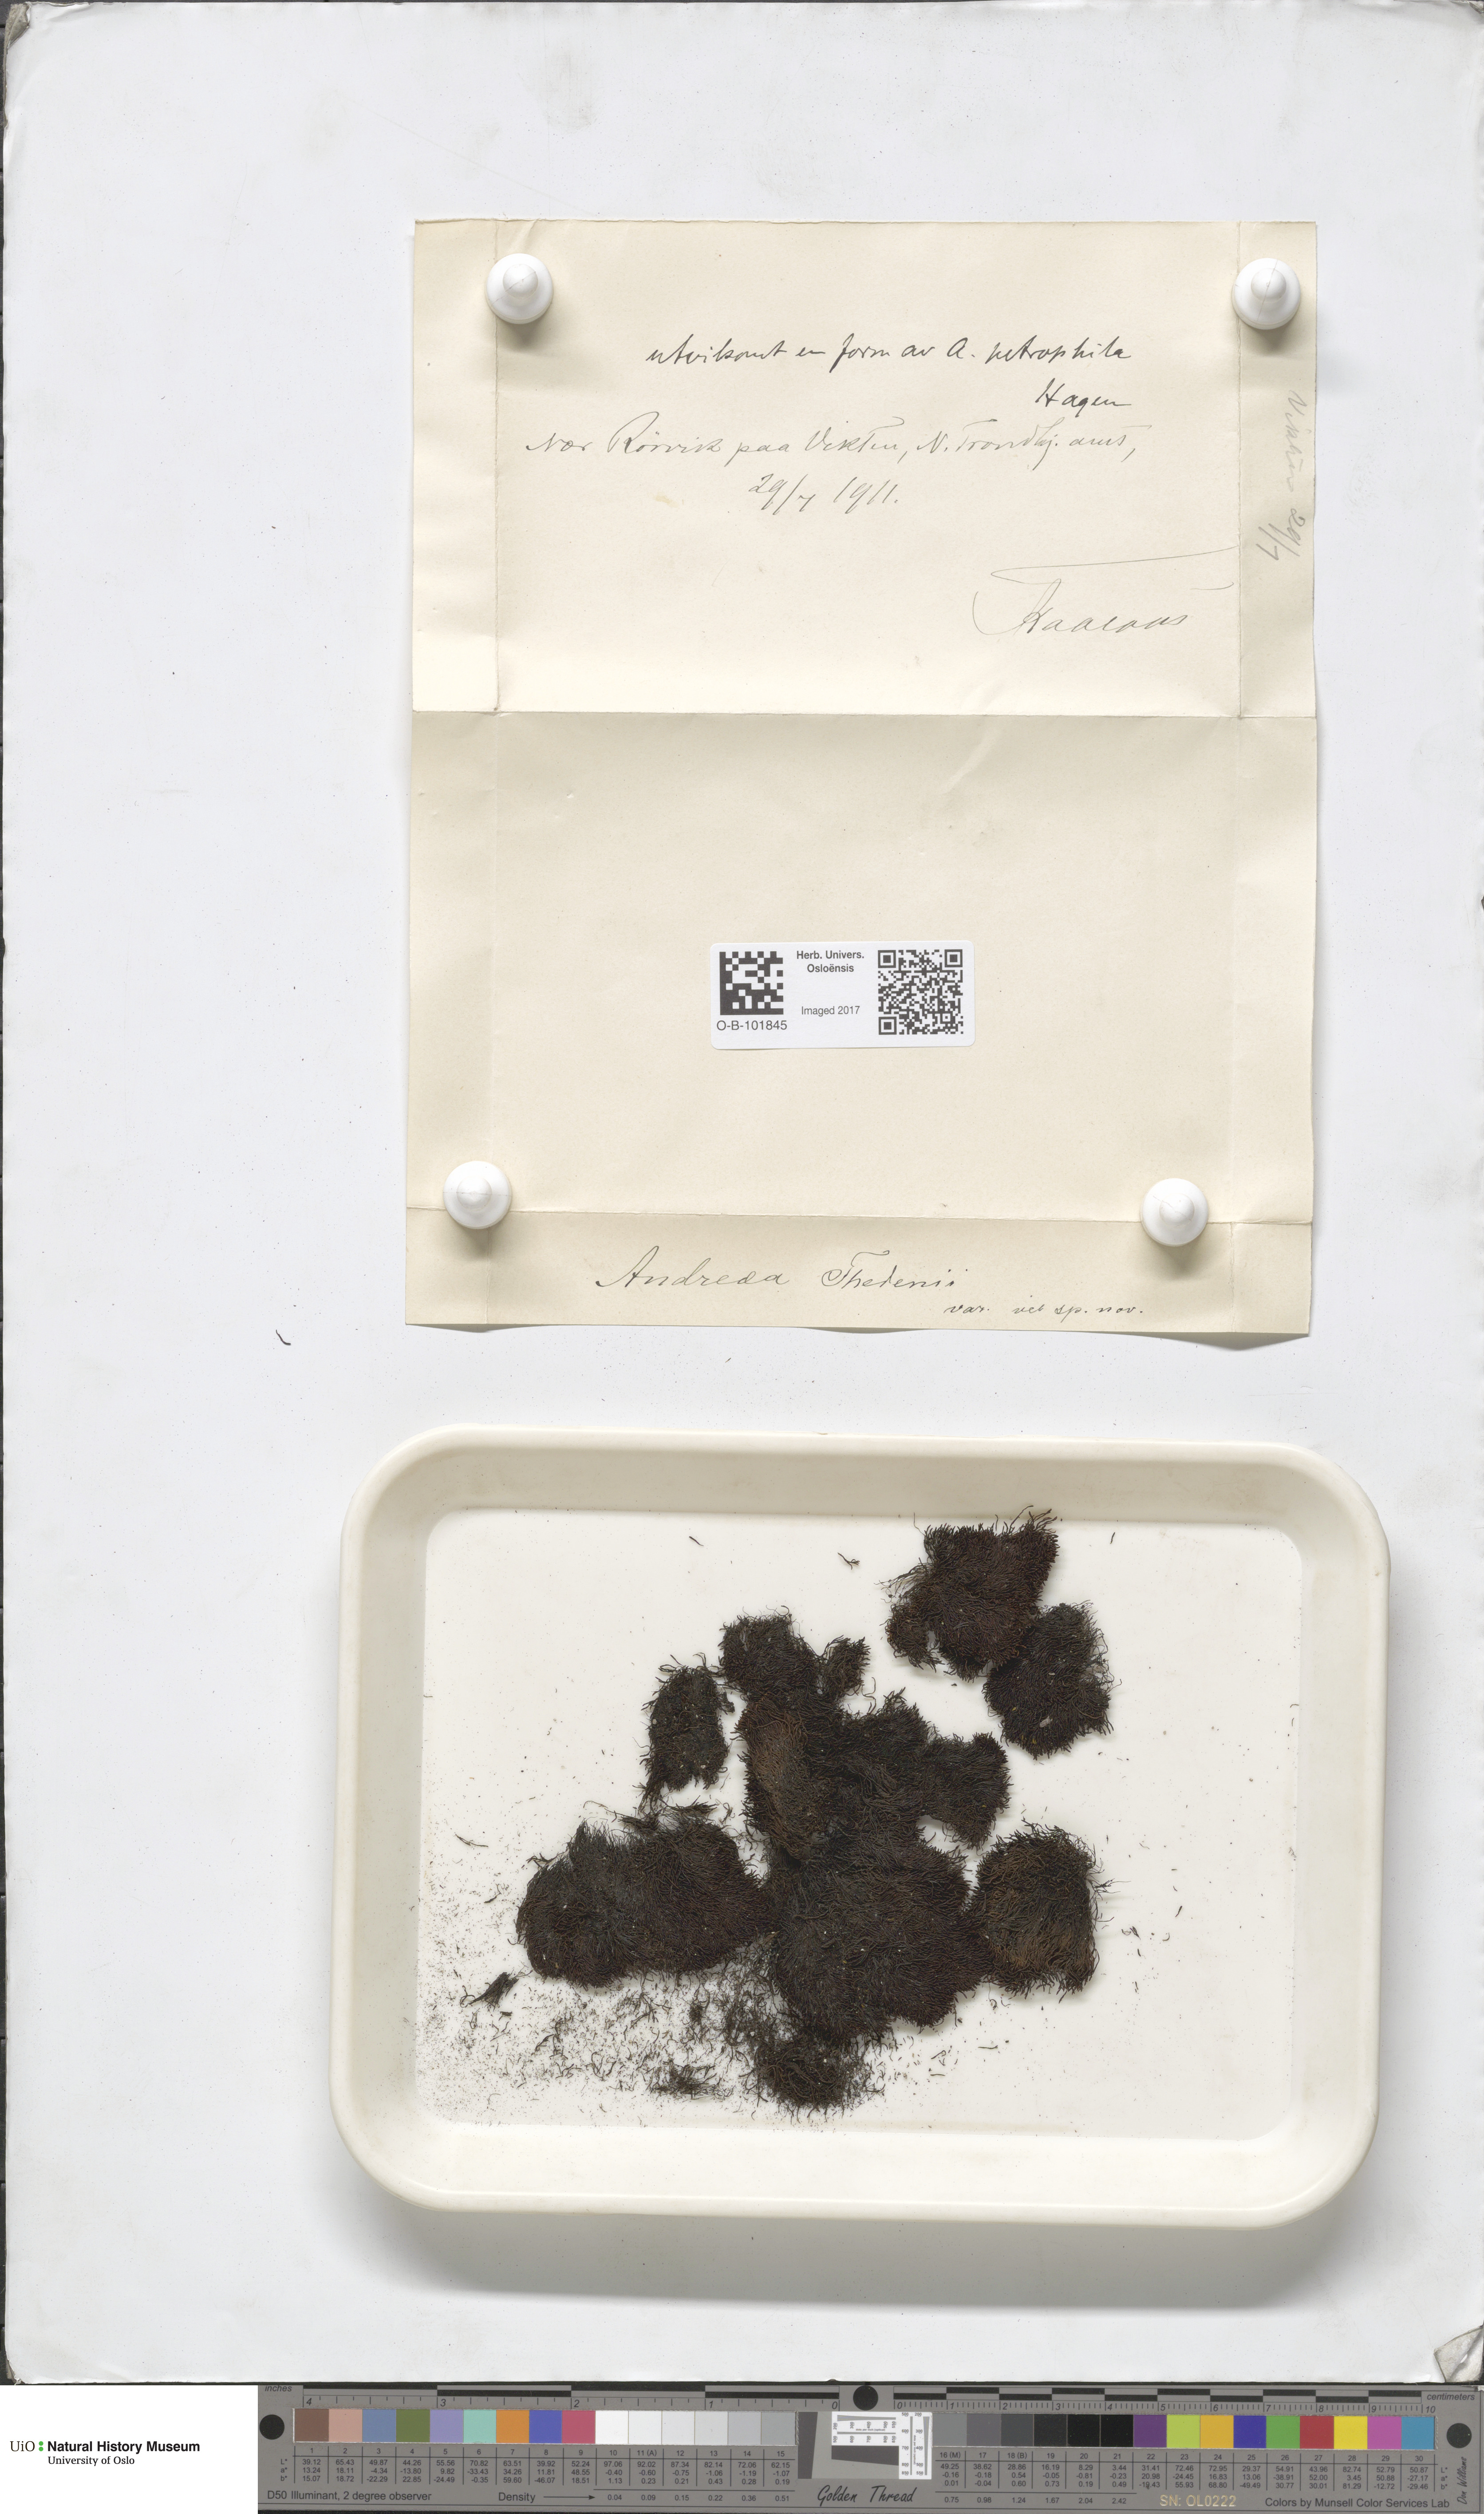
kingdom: Plantae
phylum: Bryophyta
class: Andreaeopsida
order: Andreaeales
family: Andreaeaceae
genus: Andreaea
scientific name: Andreaea hookeri
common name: Alpine rock-moss
